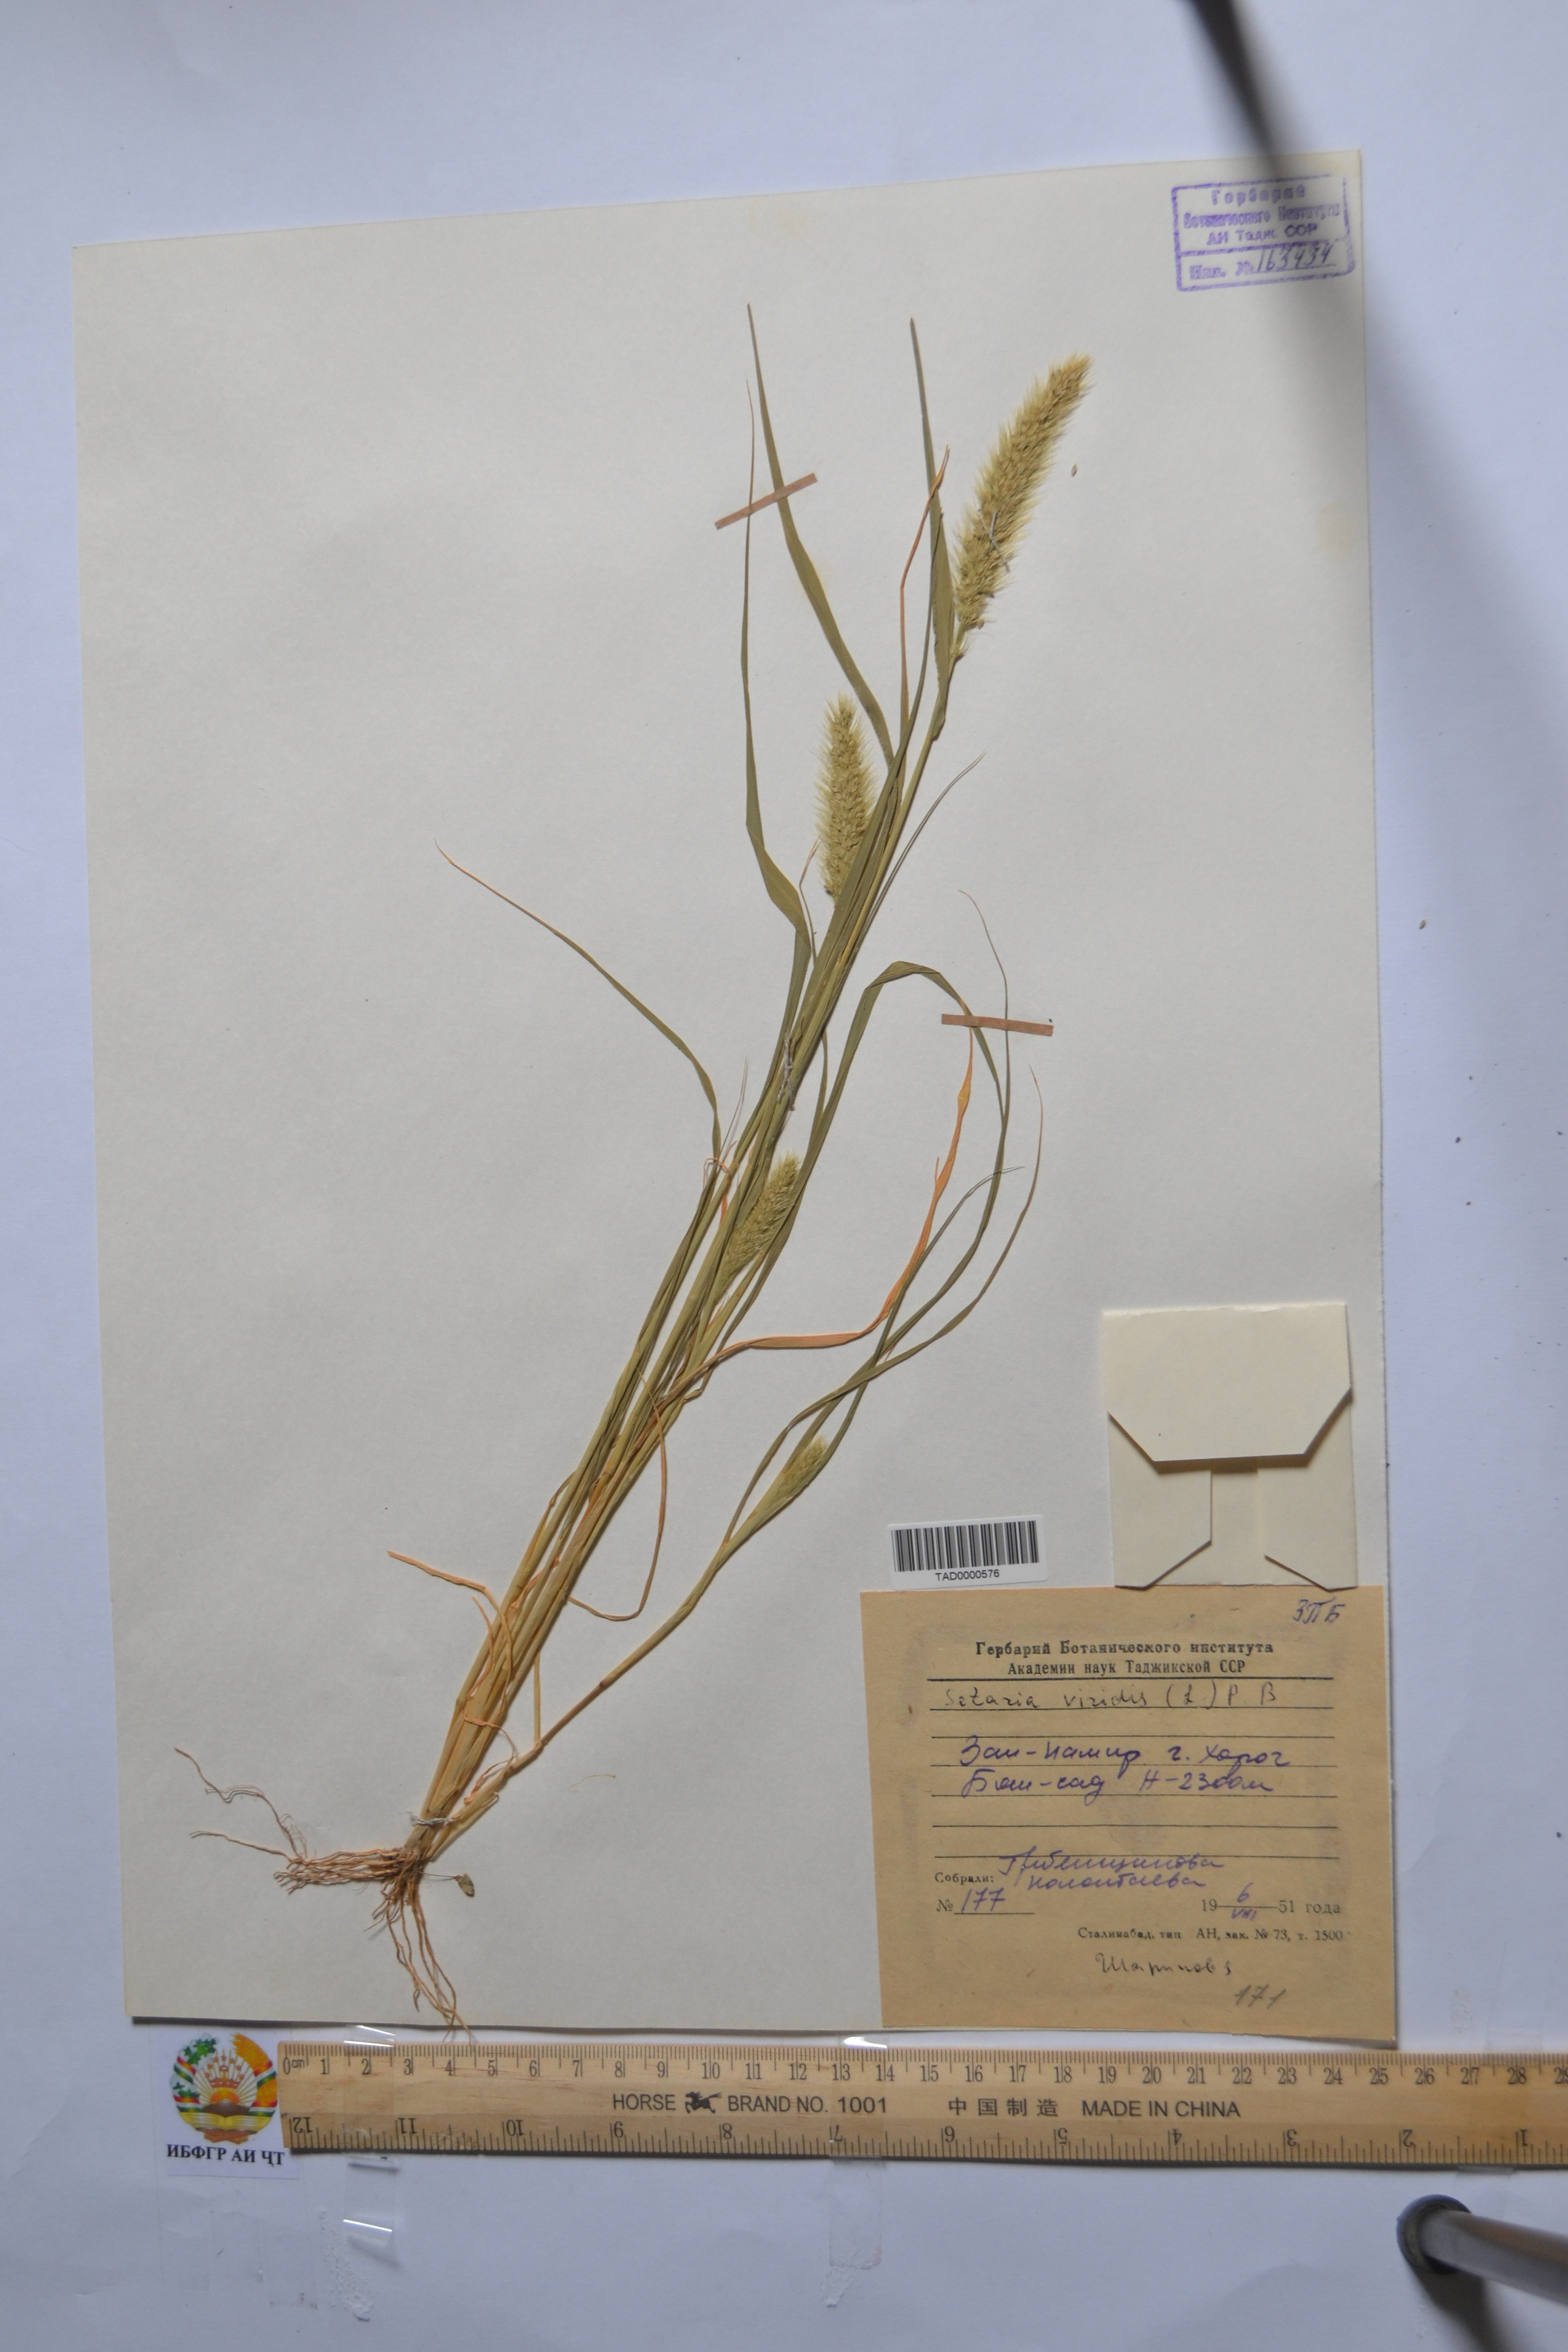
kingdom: Plantae
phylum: Tracheophyta
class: Liliopsida
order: Poales
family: Poaceae
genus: Setaria
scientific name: Setaria viridis
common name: Green bristlegrass
